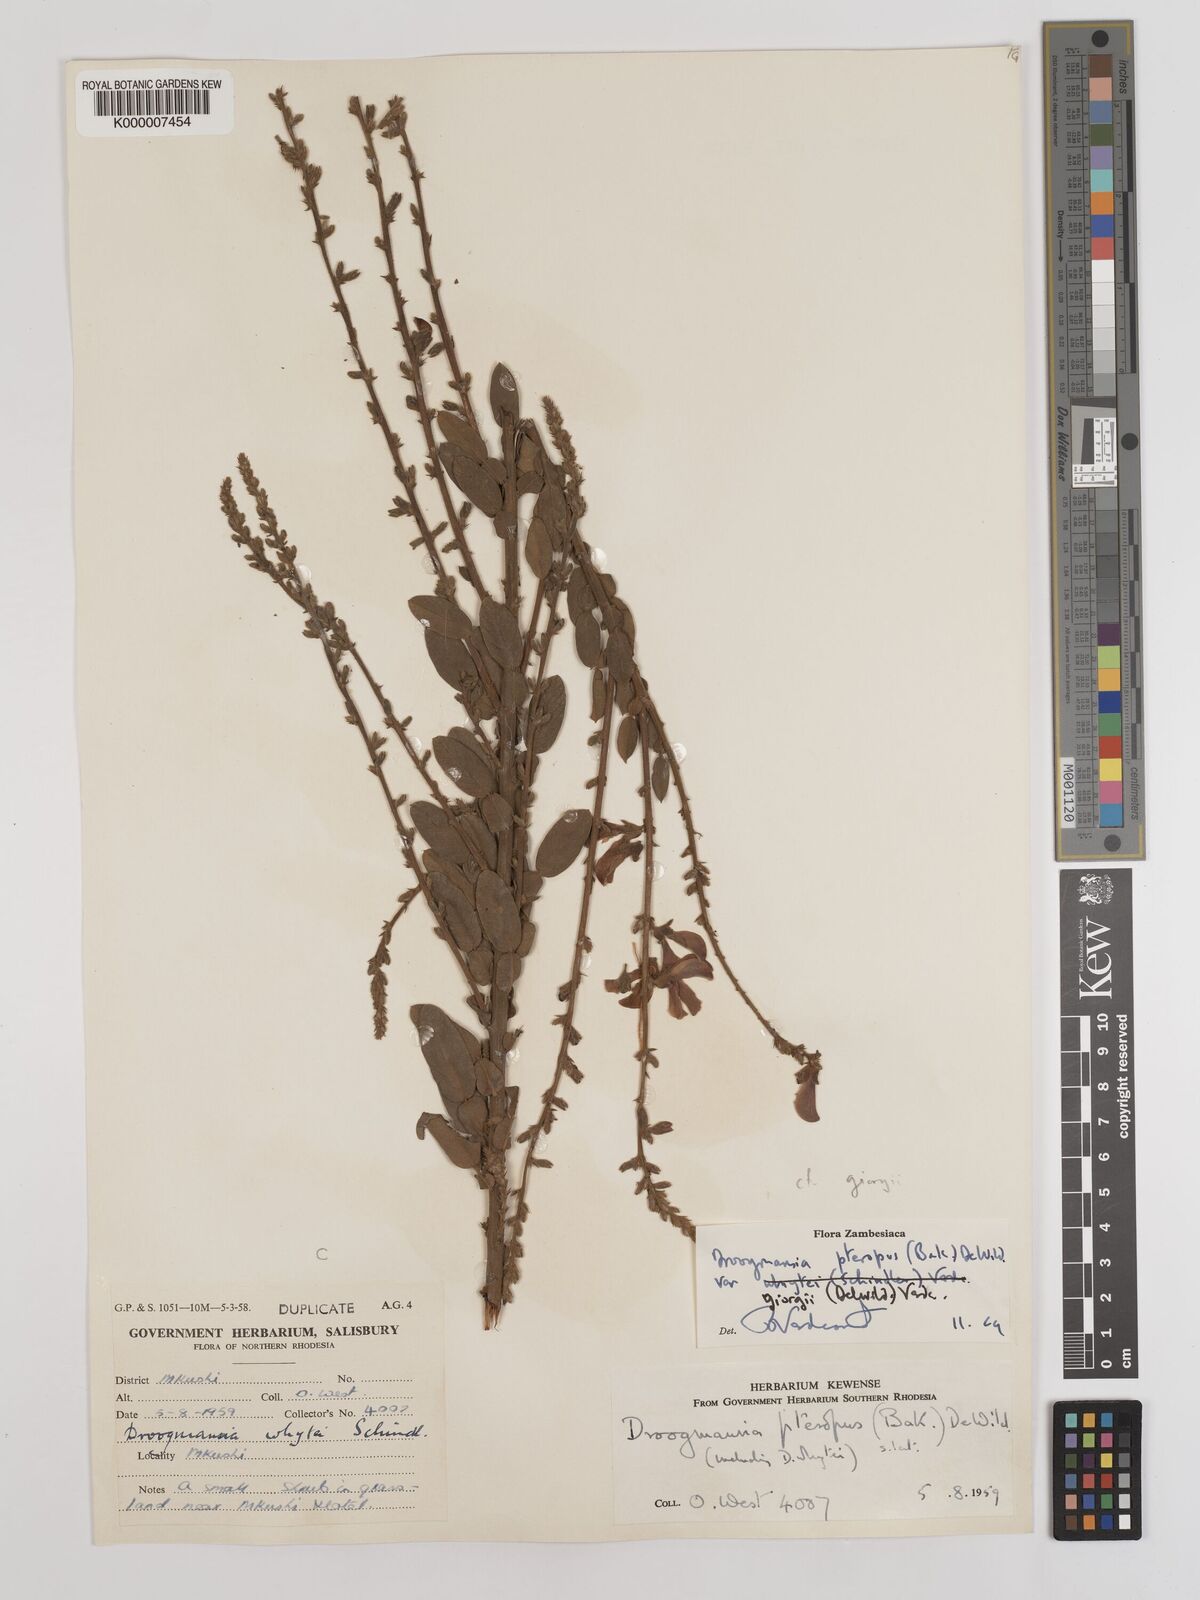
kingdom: Plantae
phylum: Tracheophyta
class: Magnoliopsida
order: Fabales
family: Fabaceae
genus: Droogmansia
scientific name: Droogmansia pteropus
